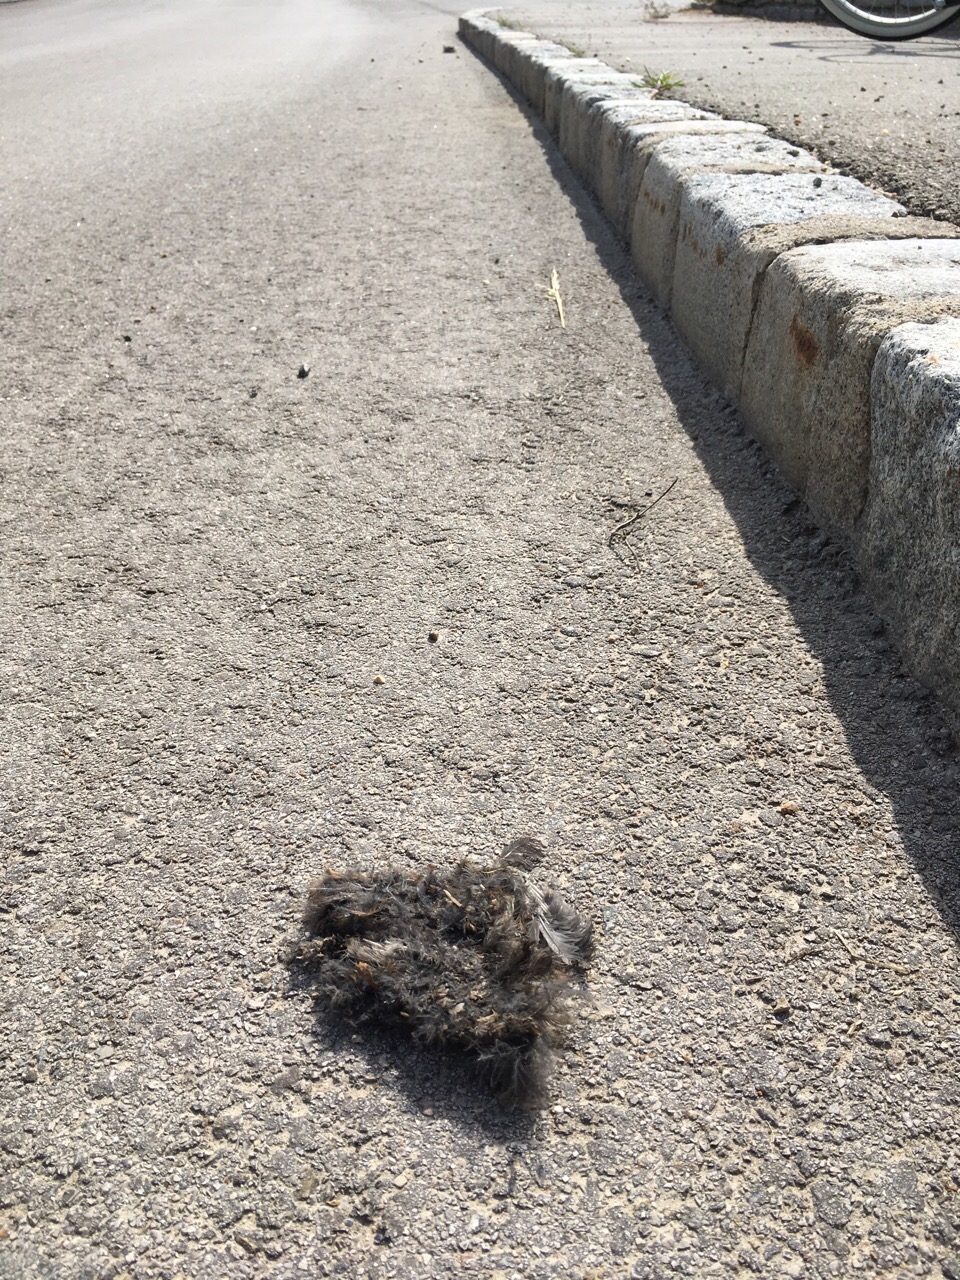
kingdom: Animalia
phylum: Chordata
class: Aves
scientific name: Aves
